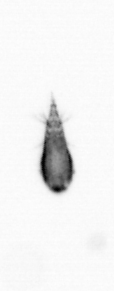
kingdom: Animalia
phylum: Arthropoda
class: Copepoda
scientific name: Copepoda
